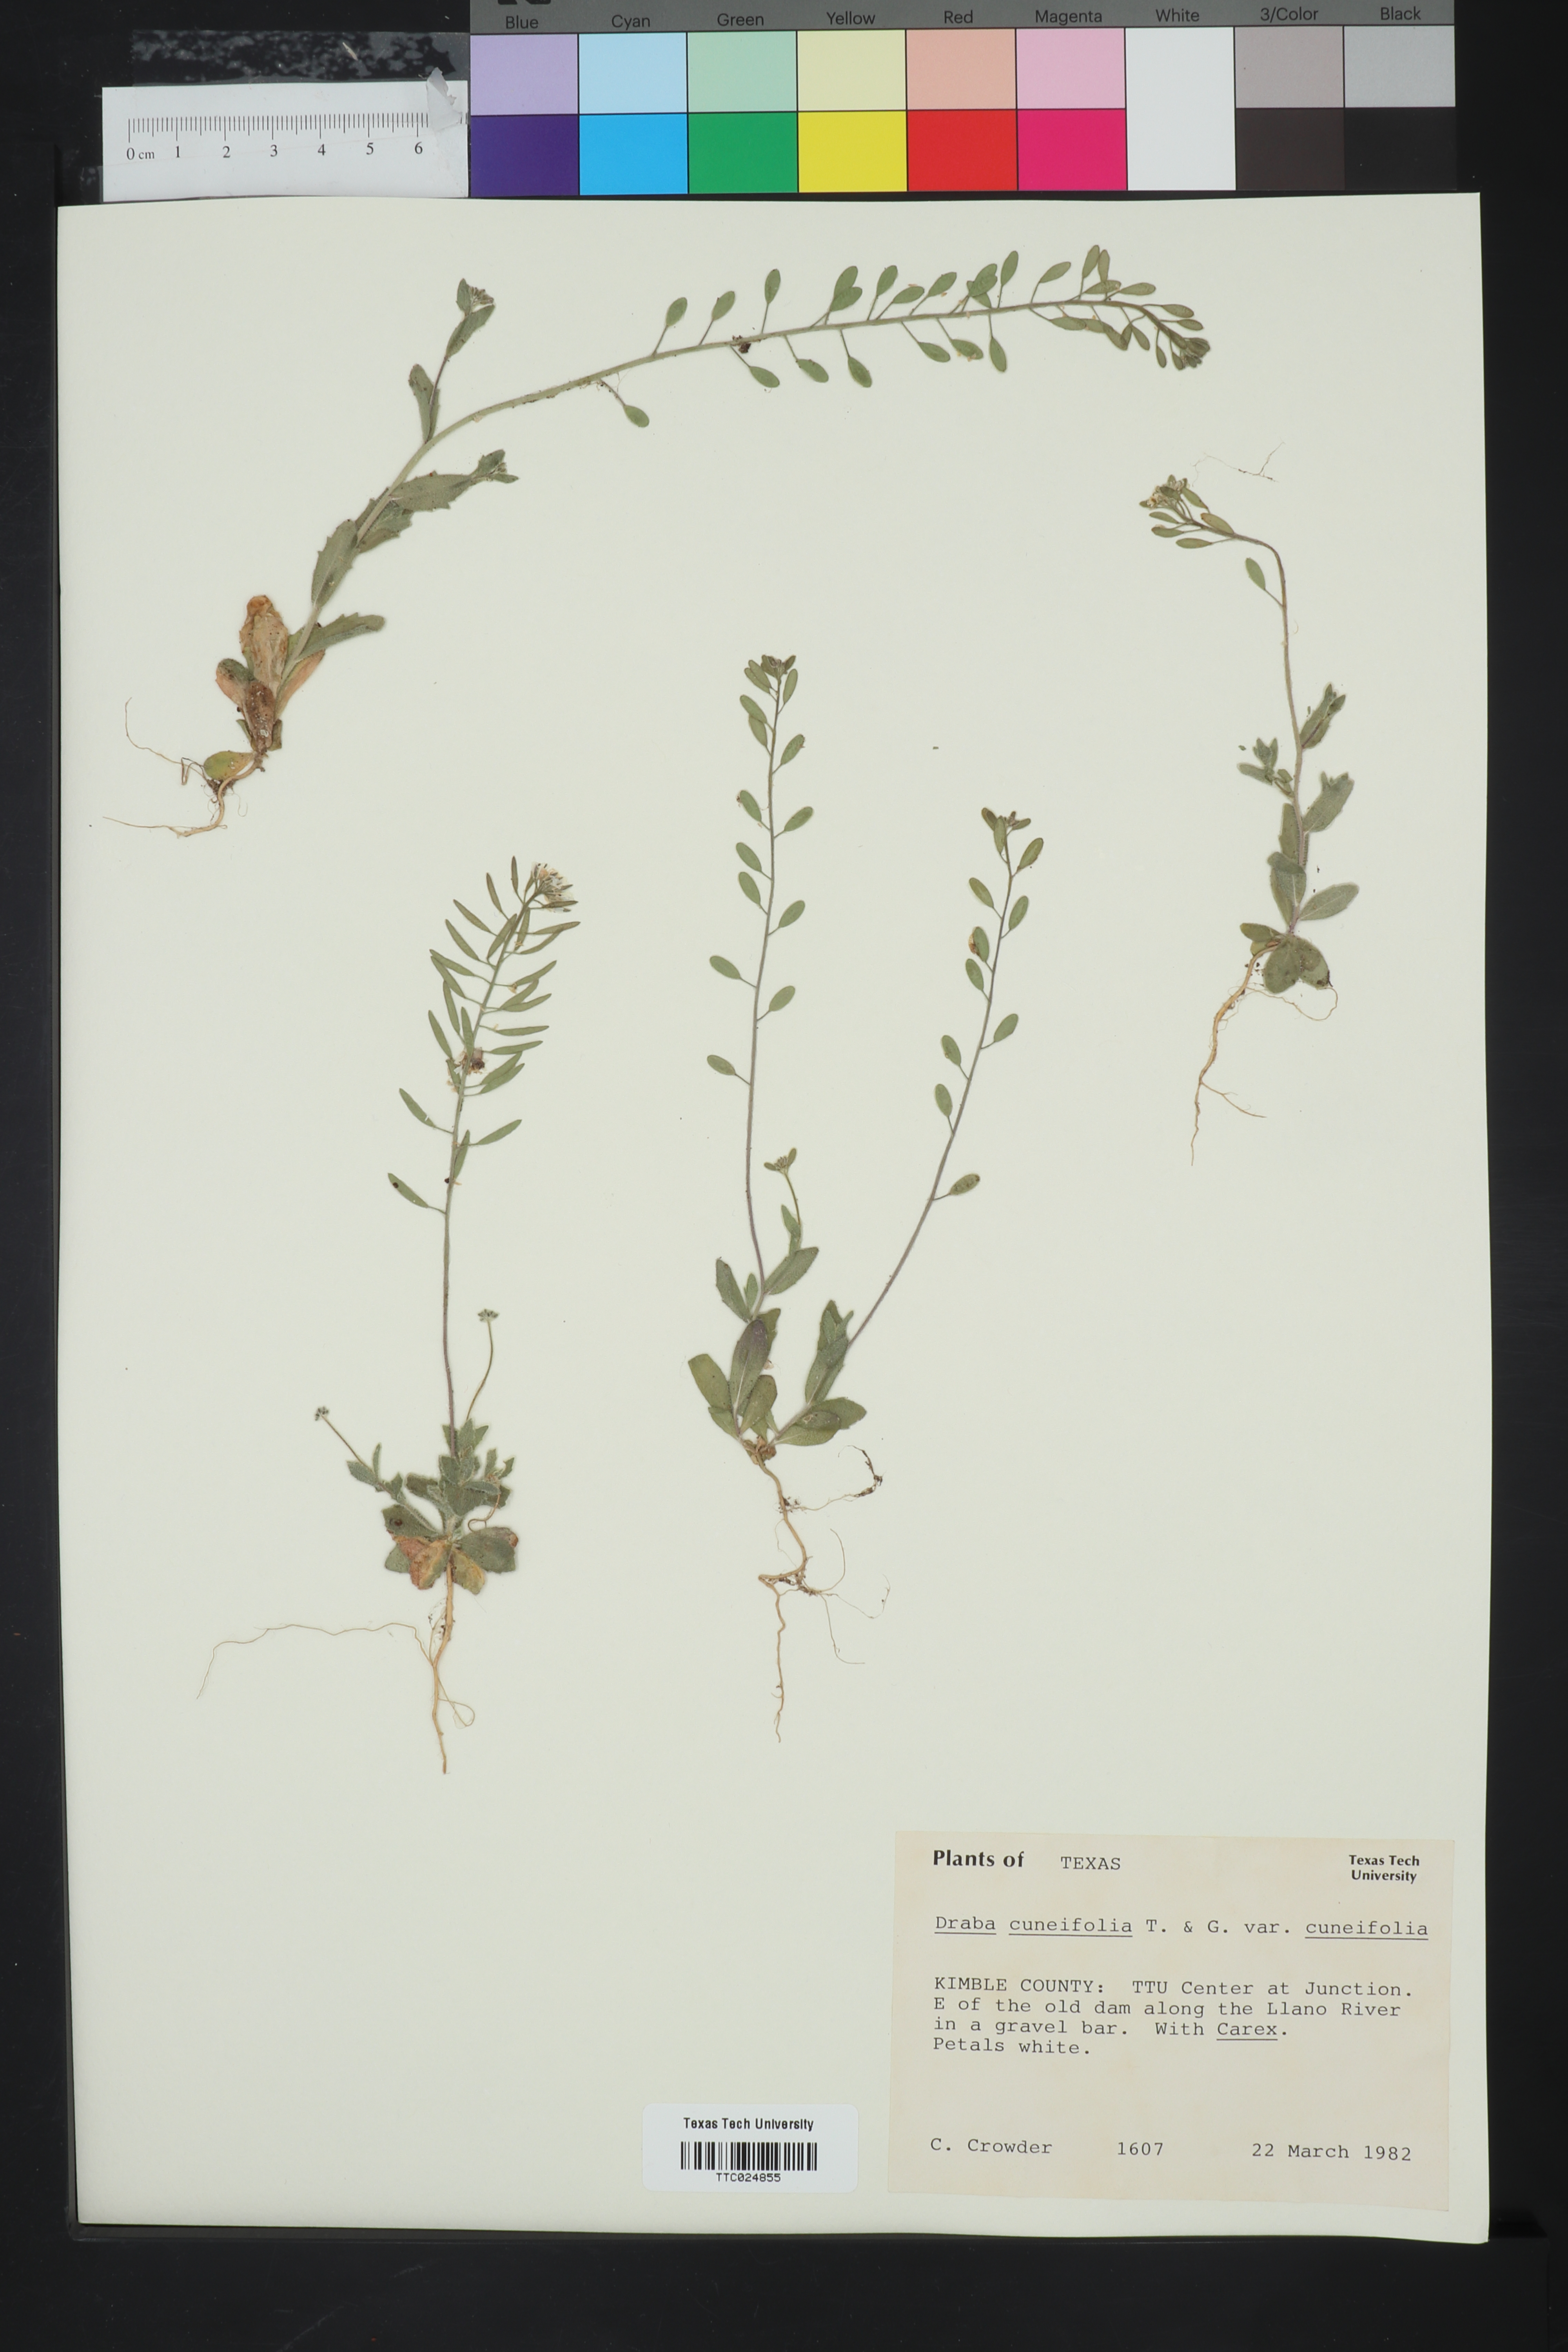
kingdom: Plantae
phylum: Tracheophyta
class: Magnoliopsida
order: Brassicales
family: Brassicaceae
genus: Tomostima
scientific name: Tomostima cuneifolia
